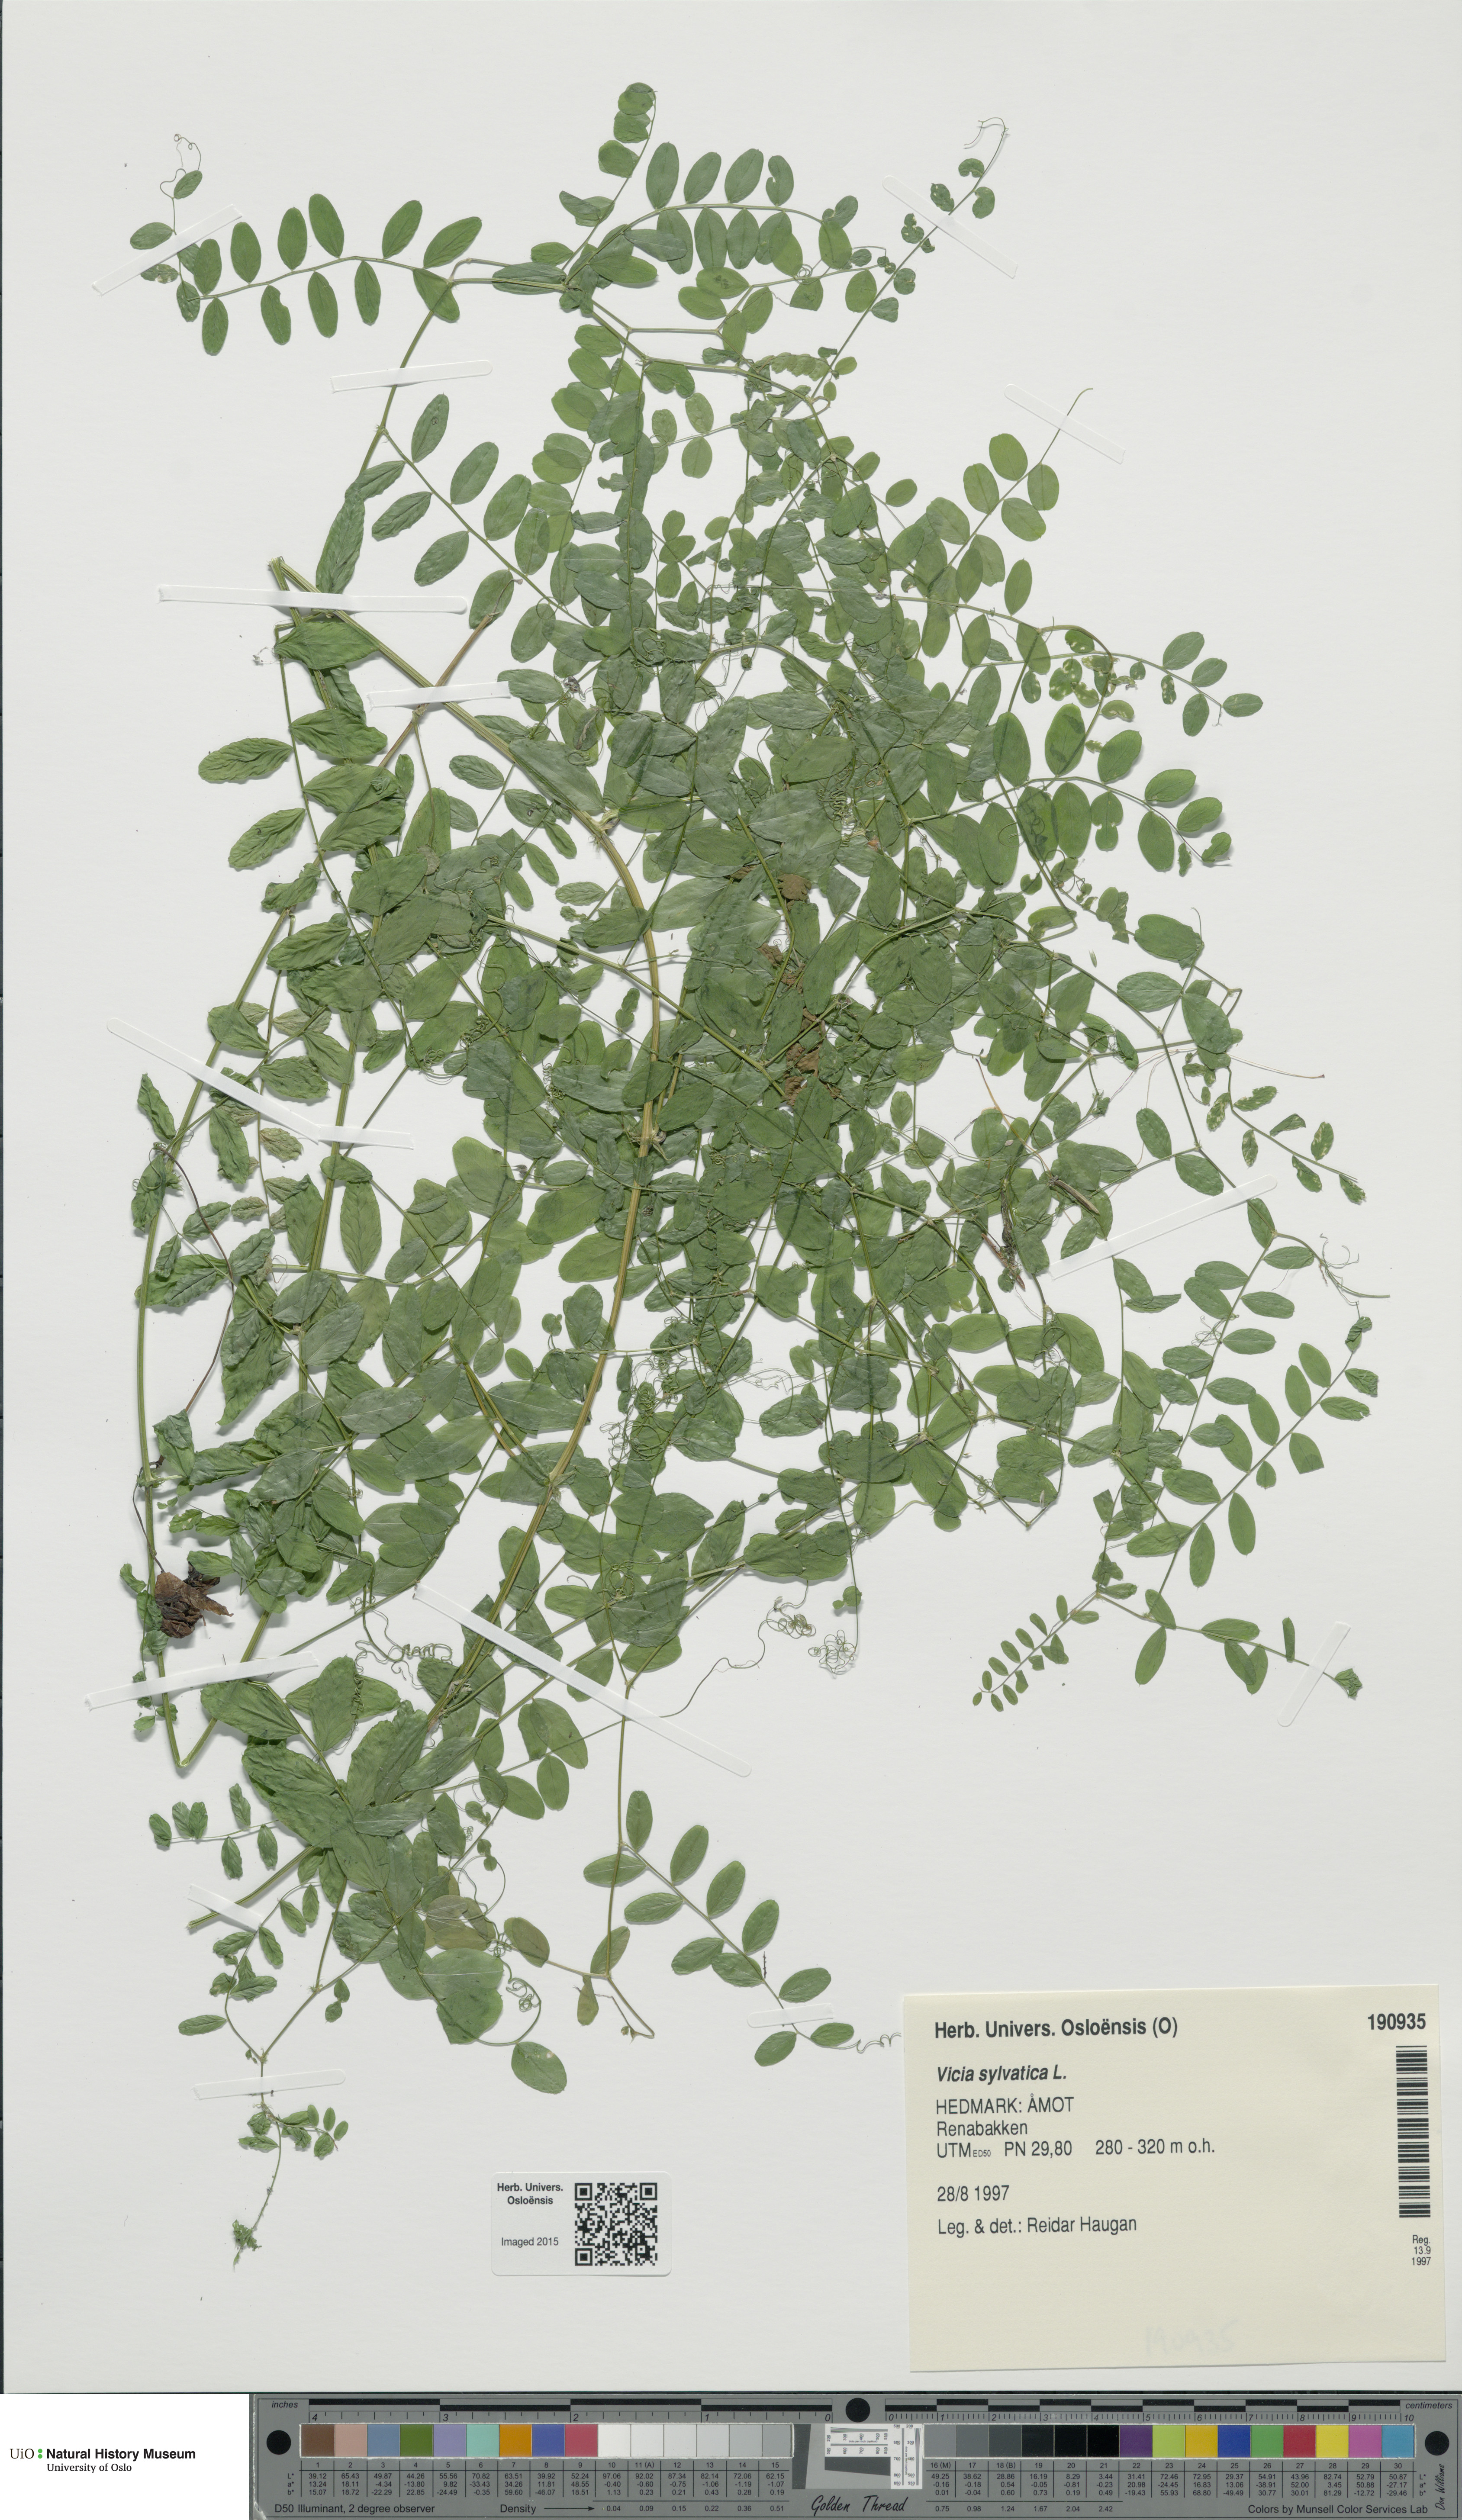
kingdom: Plantae
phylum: Tracheophyta
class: Magnoliopsida
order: Fabales
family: Fabaceae
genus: Vicia
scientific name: Vicia sylvatica
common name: Wood vetch
